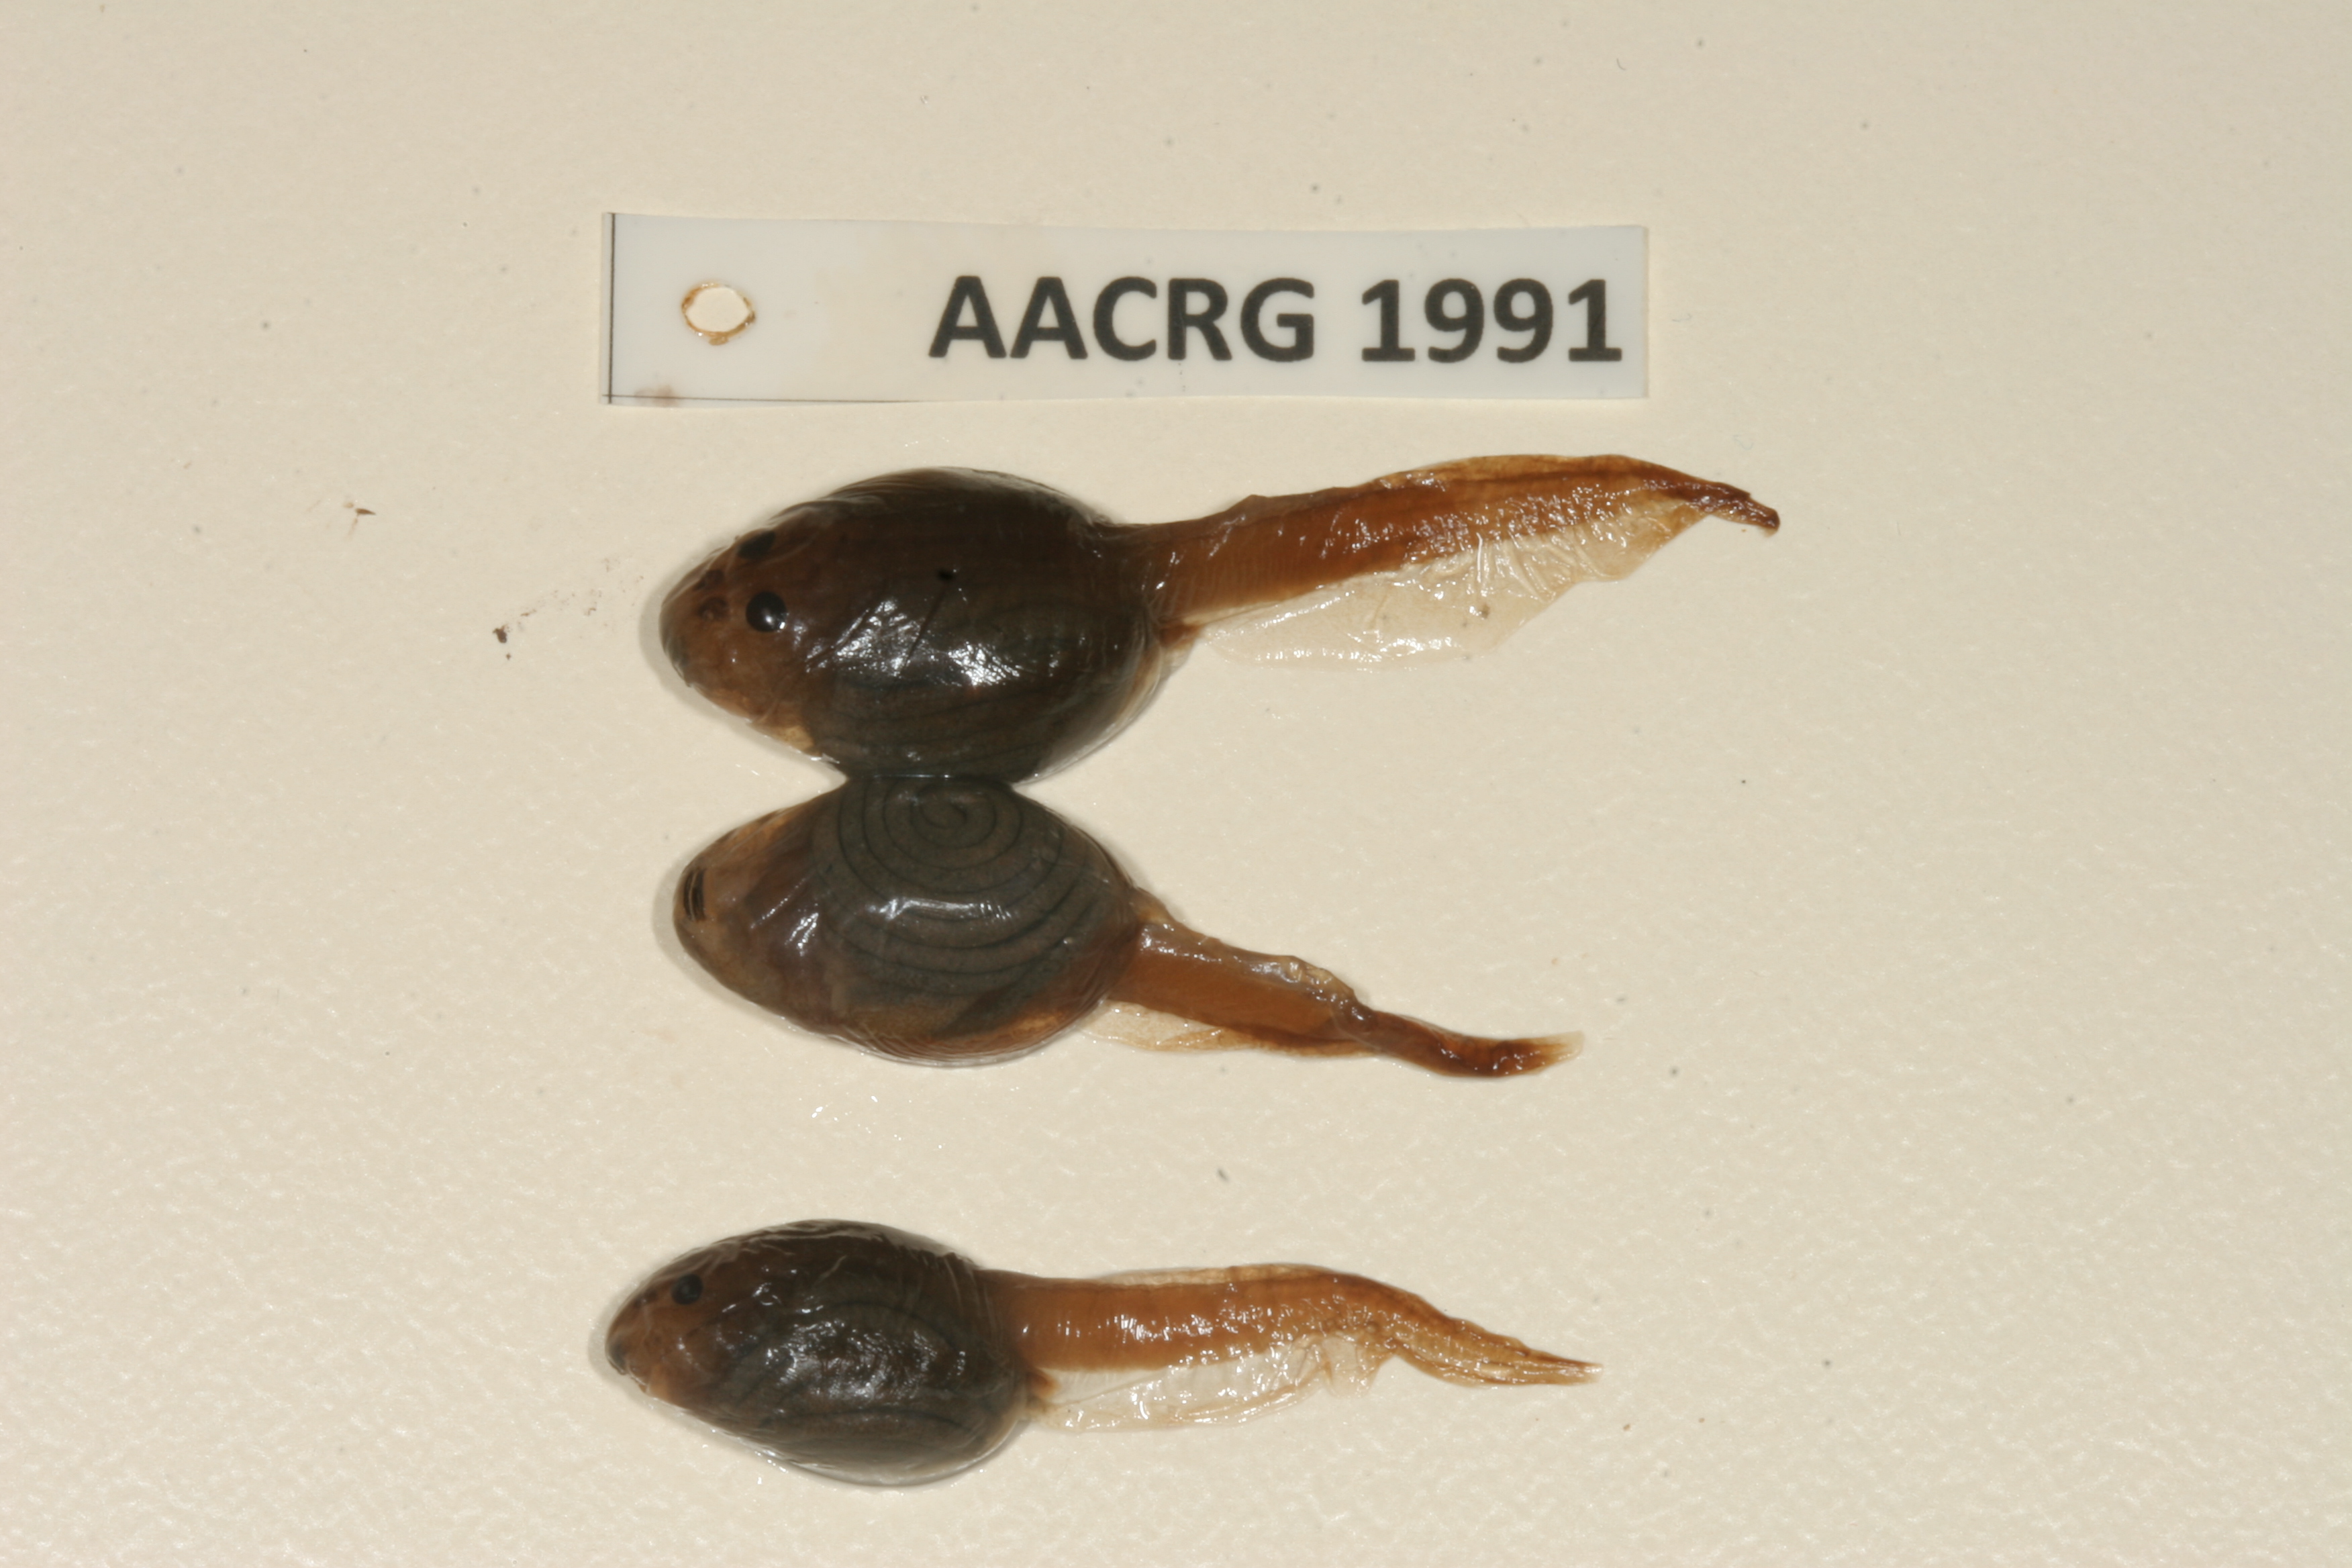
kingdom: Animalia
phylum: Chordata
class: Amphibia
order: Anura
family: Pyxicephalidae
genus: Pyxicephalus
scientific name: Pyxicephalus edulis
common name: Peter's bullfrog
